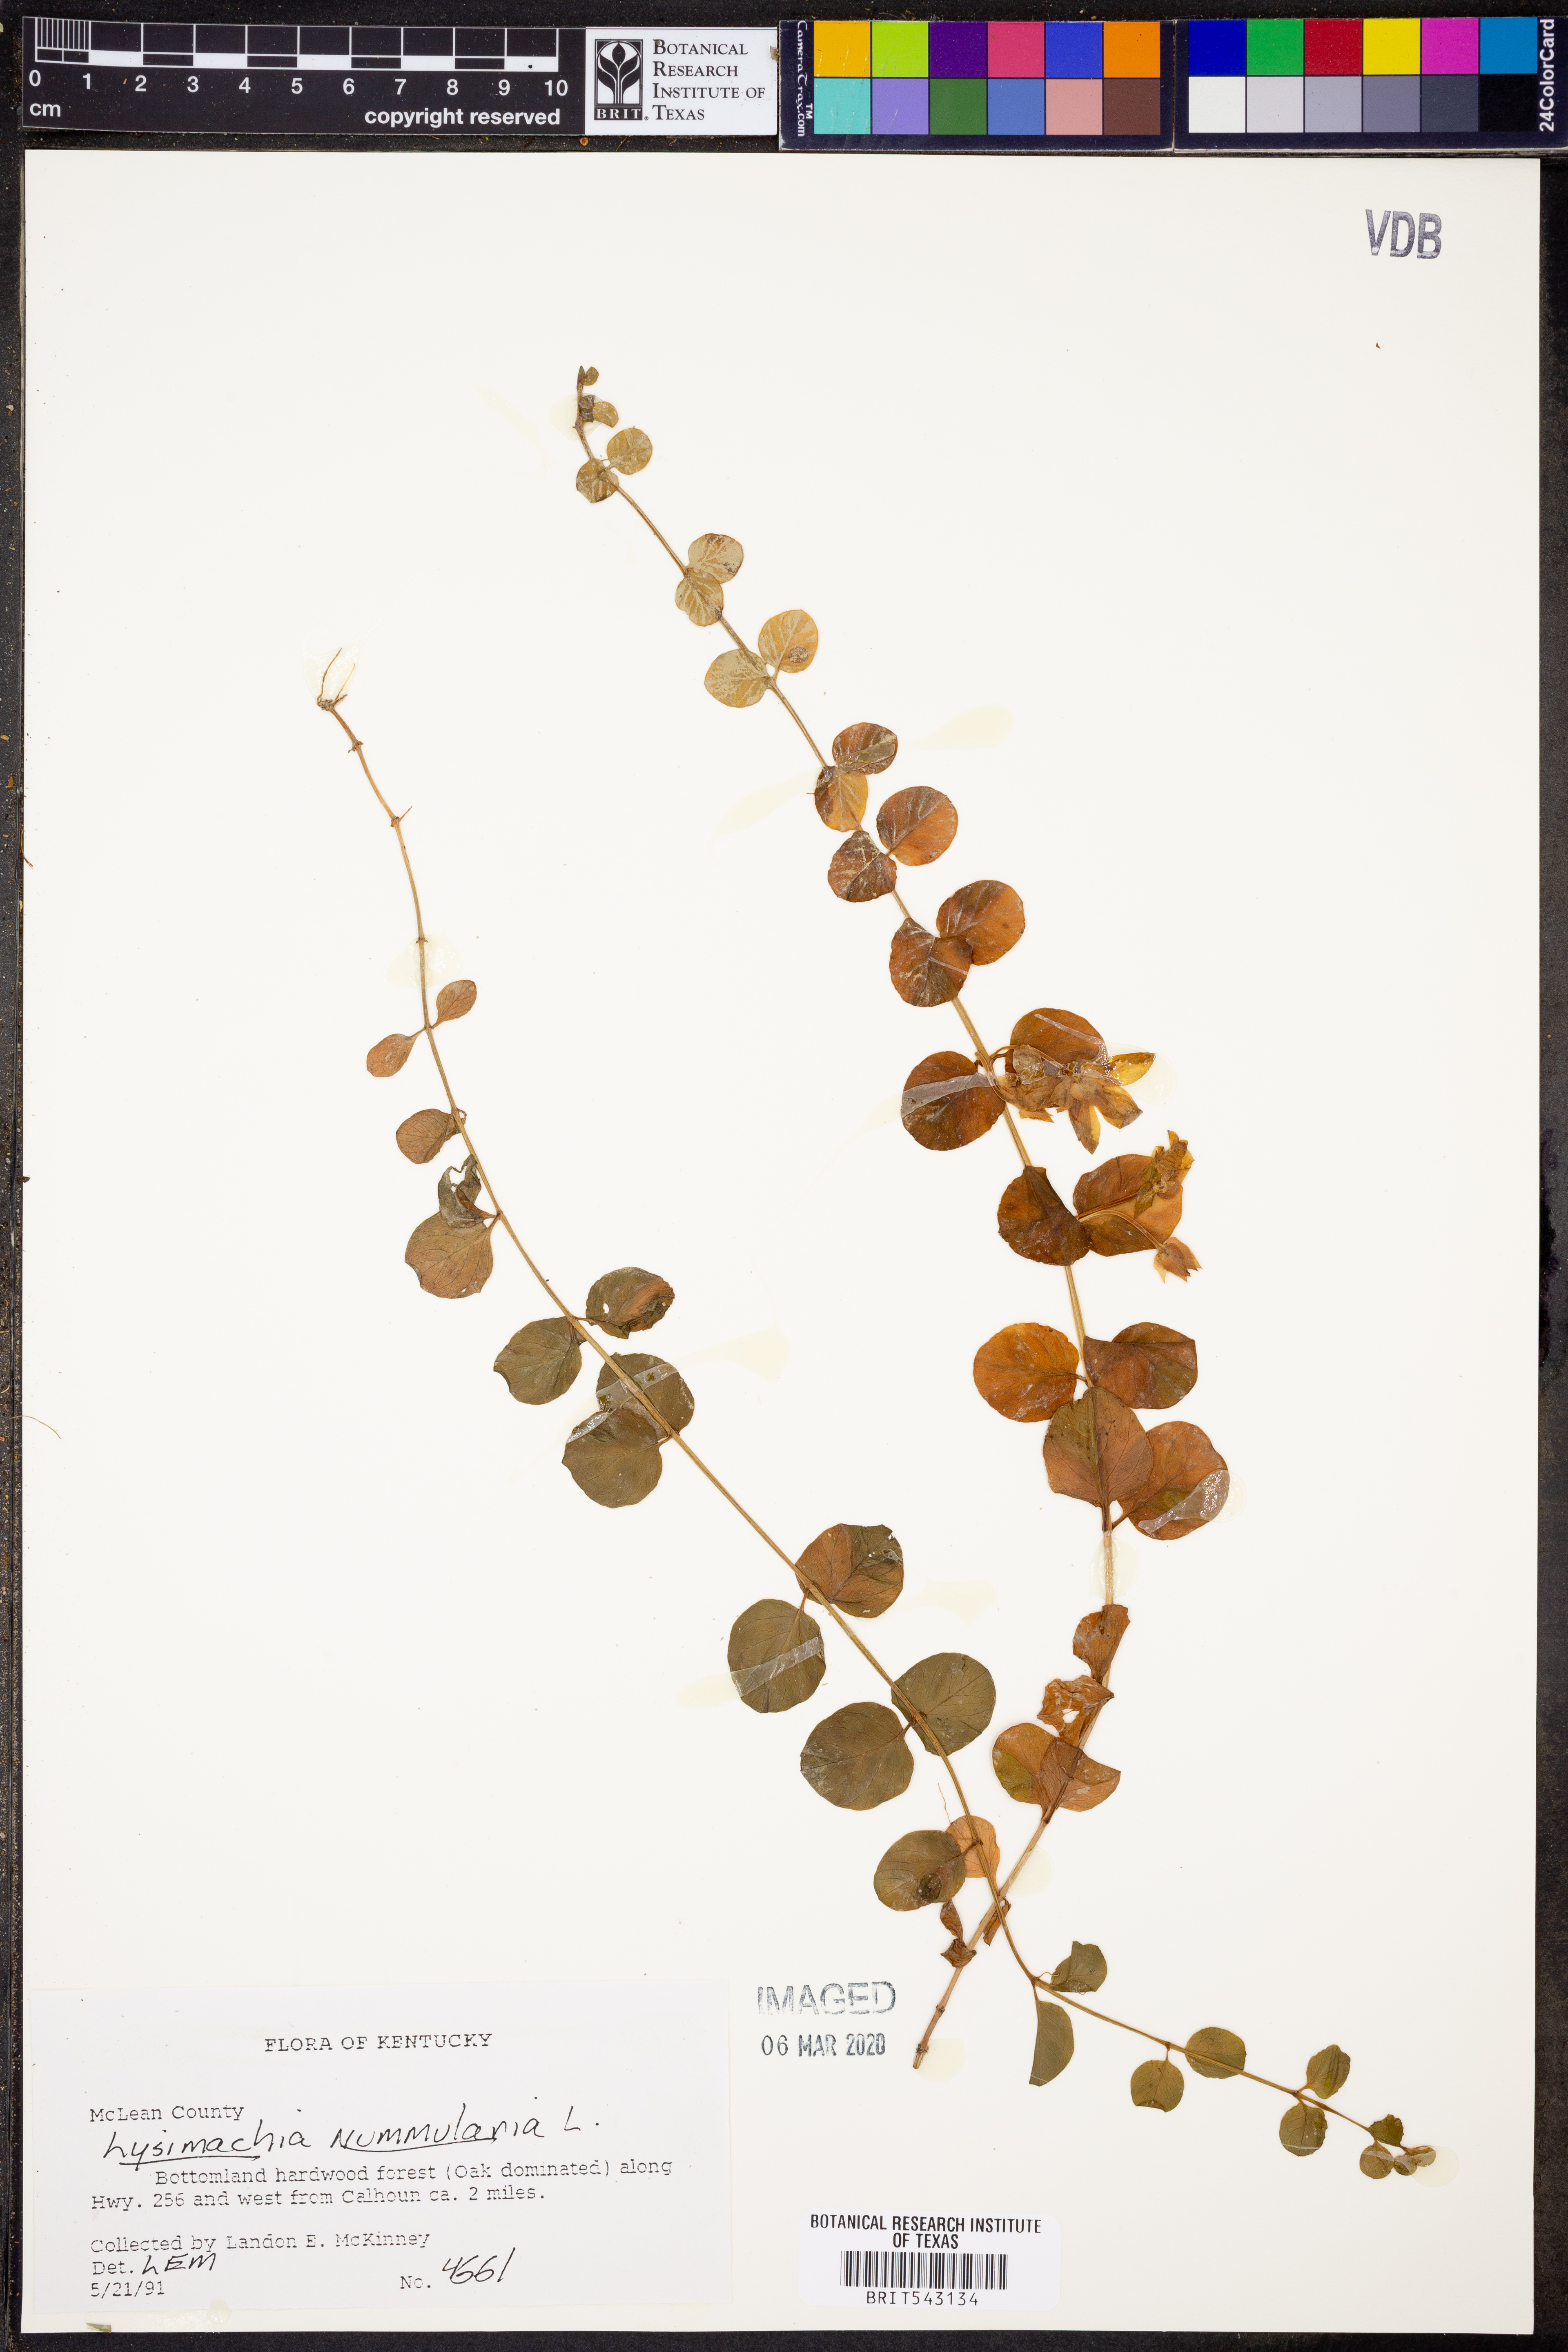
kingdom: Plantae
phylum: Tracheophyta
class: Magnoliopsida
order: Ericales
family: Primulaceae
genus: Lysimachia
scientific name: Lysimachia nummularia
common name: Moneywort
